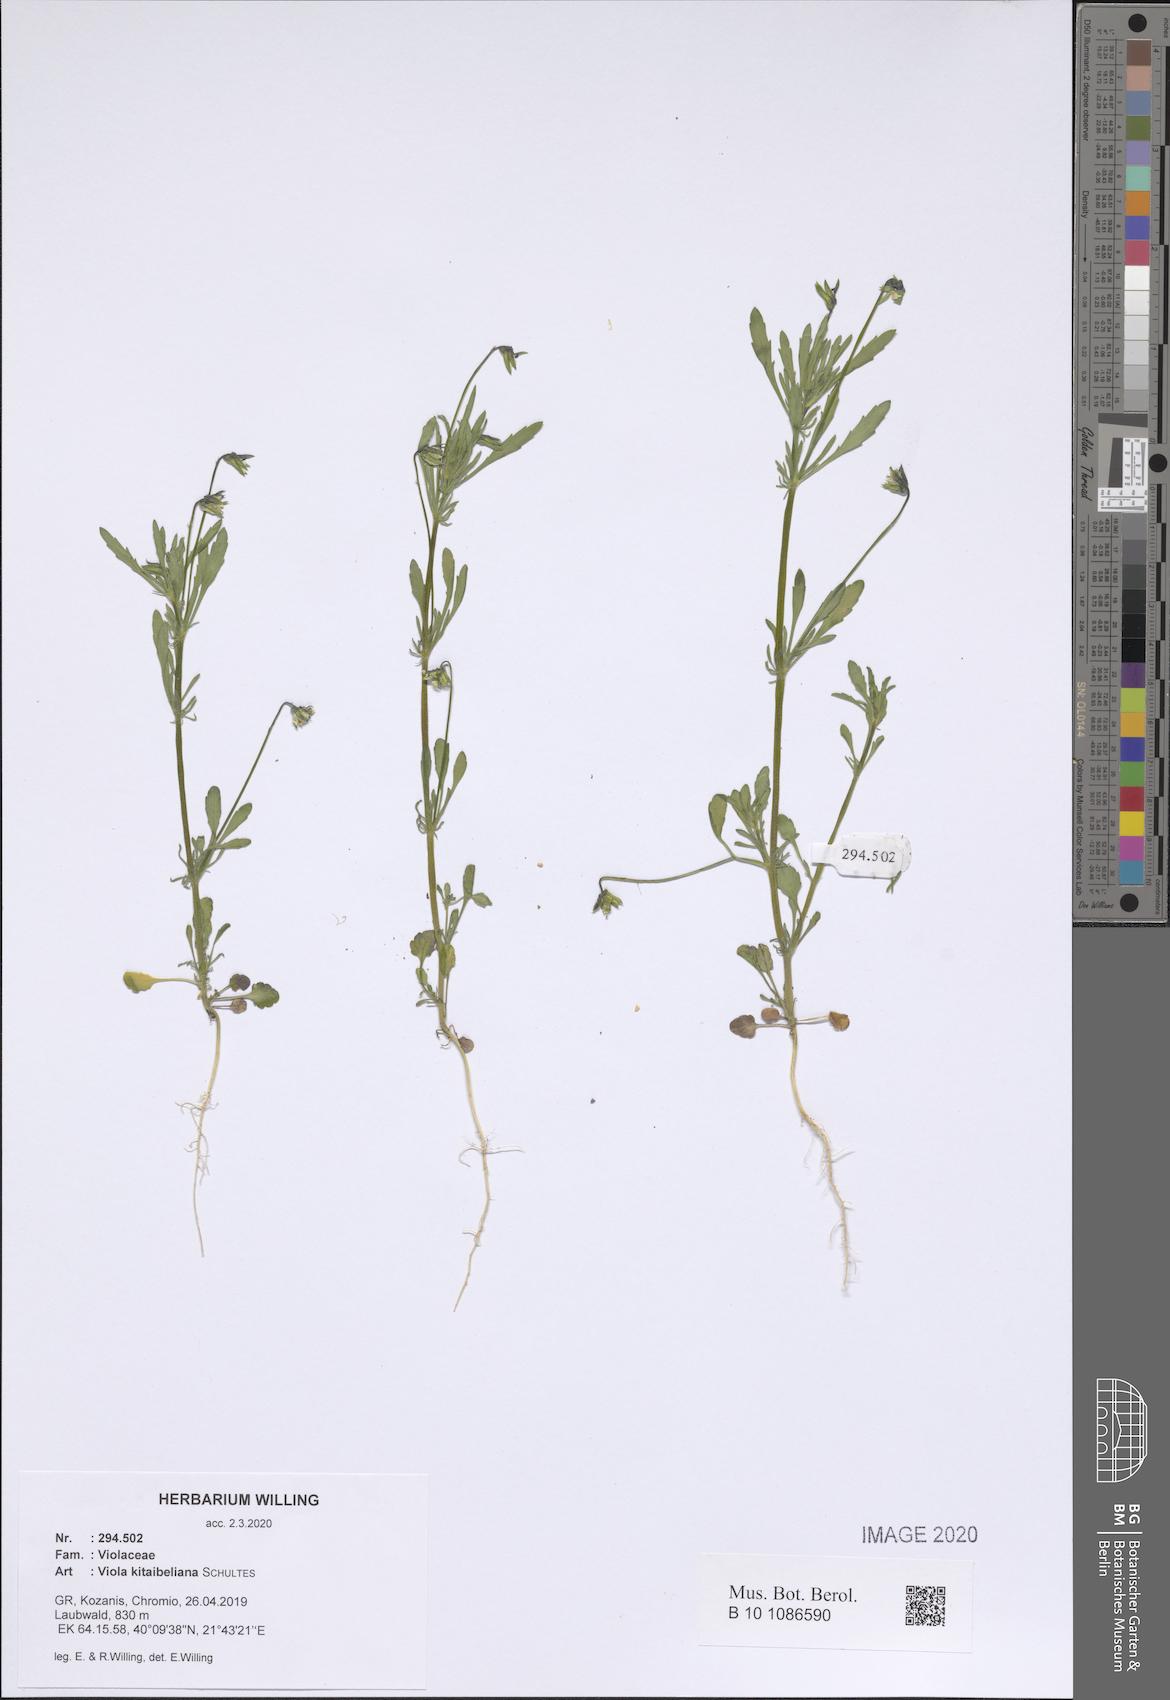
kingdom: Plantae
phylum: Tracheophyta
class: Magnoliopsida
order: Malpighiales
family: Violaceae
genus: Viola
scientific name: Viola kitaibeliana
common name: Dwarf pansy
